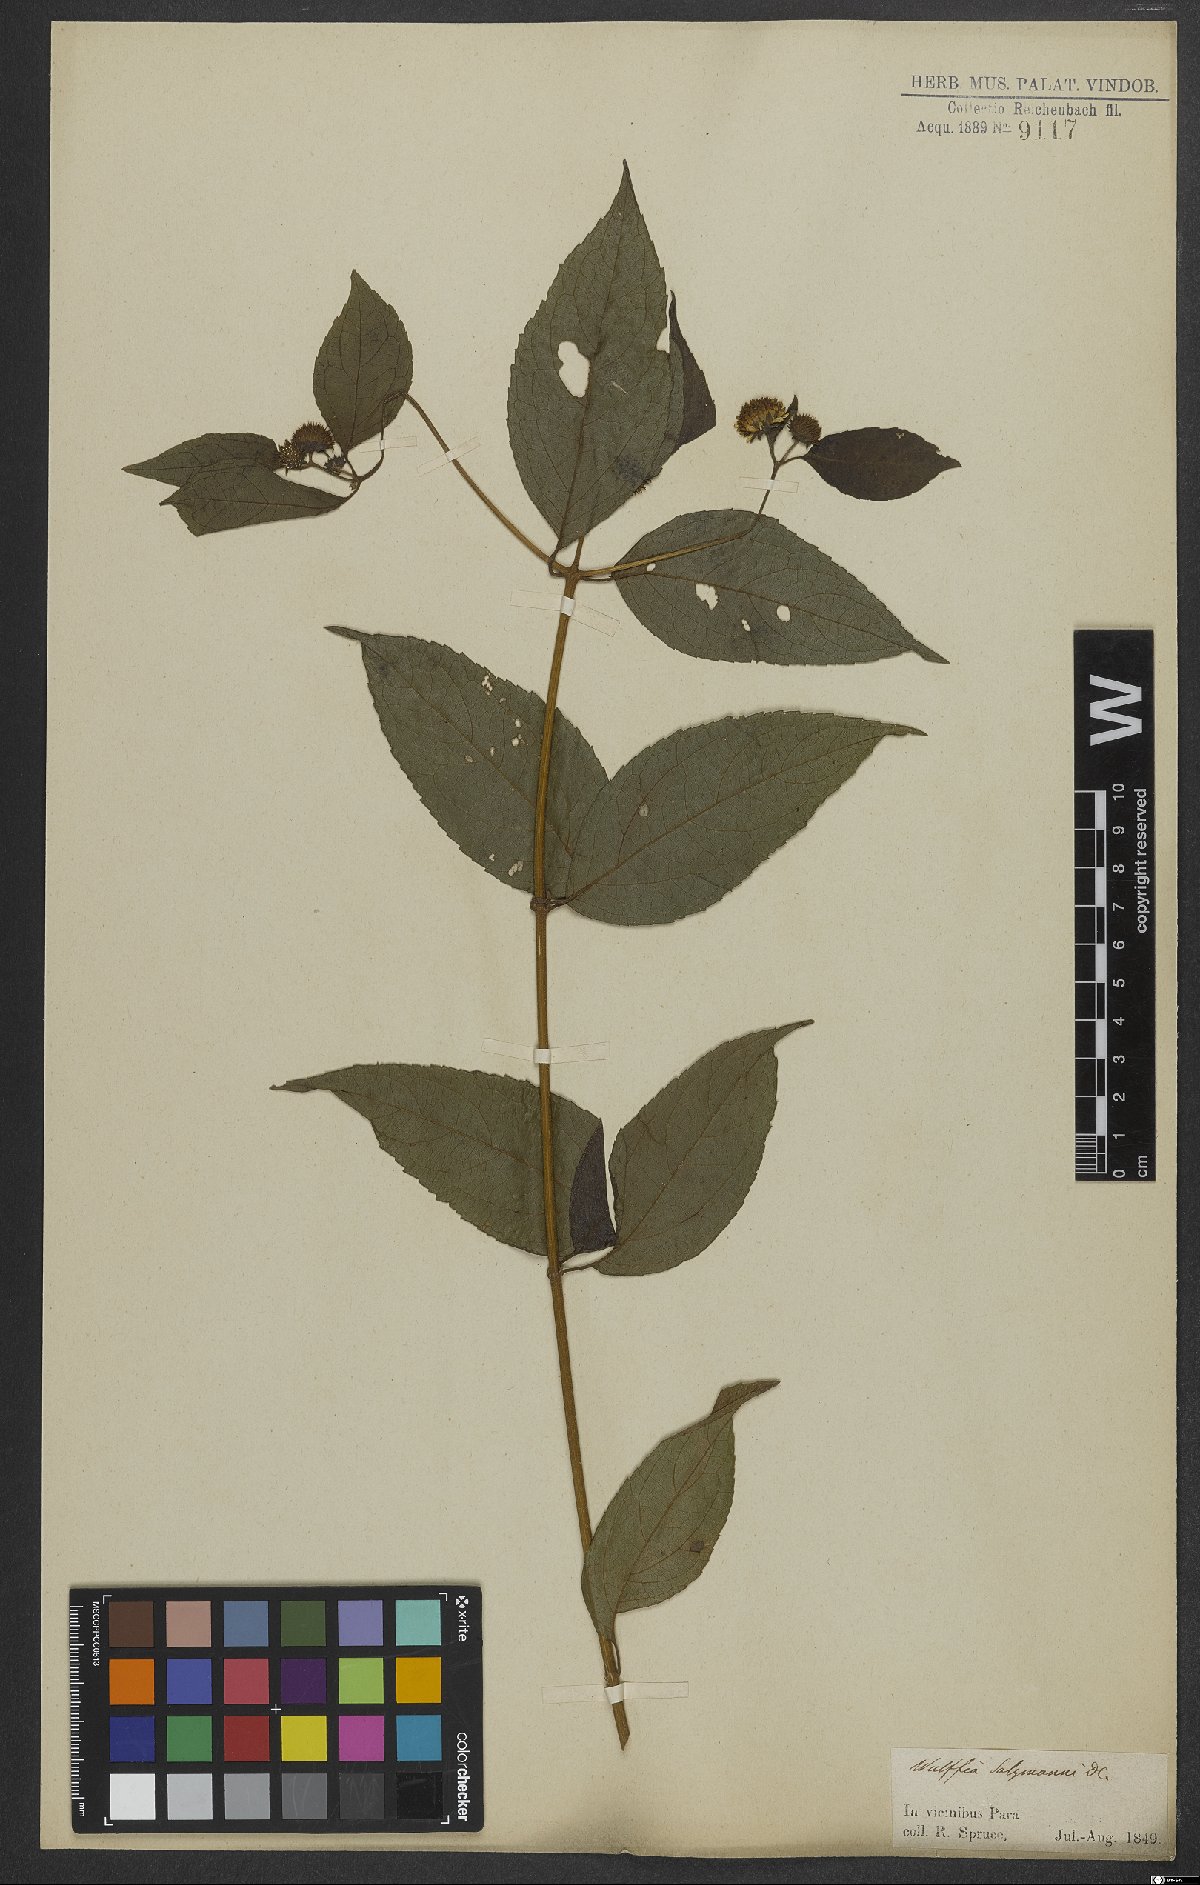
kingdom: Plantae
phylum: Tracheophyta
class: Magnoliopsida
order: Asterales
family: Asteraceae
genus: Tilesia
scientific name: Tilesia
